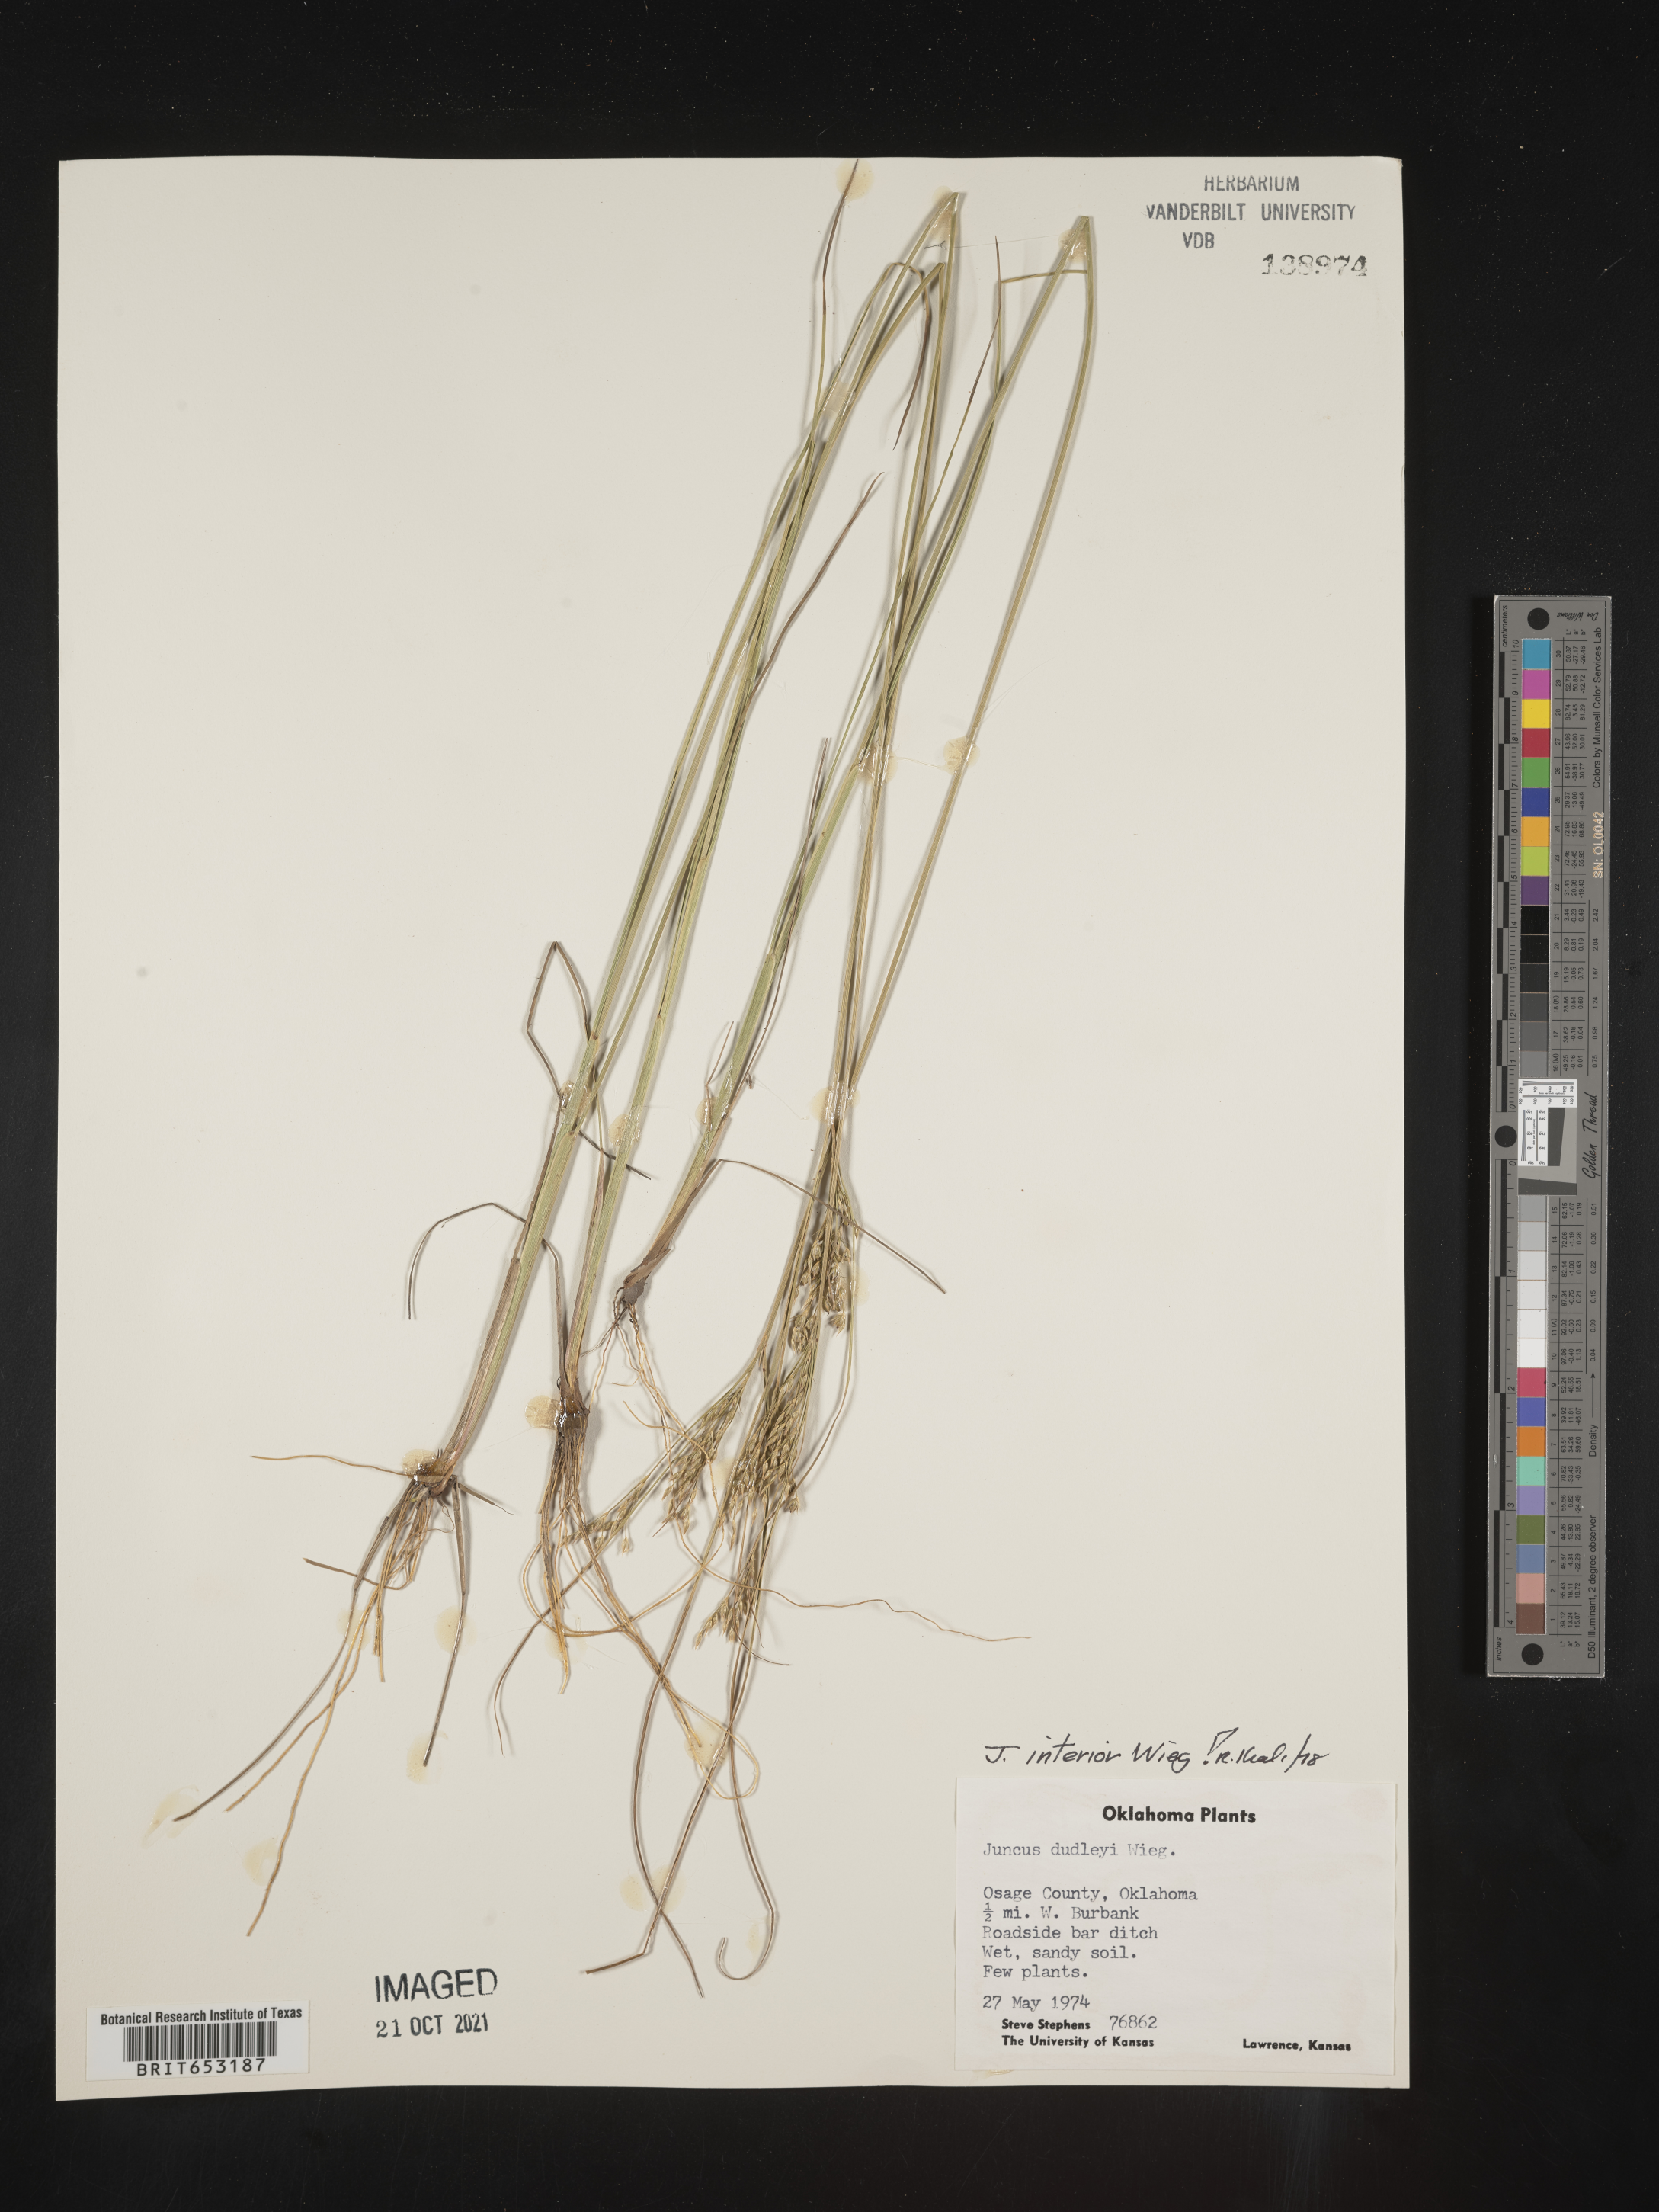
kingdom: Plantae
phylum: Tracheophyta
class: Liliopsida
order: Poales
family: Juncaceae
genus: Juncus
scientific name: Juncus interior
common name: Interior rush
